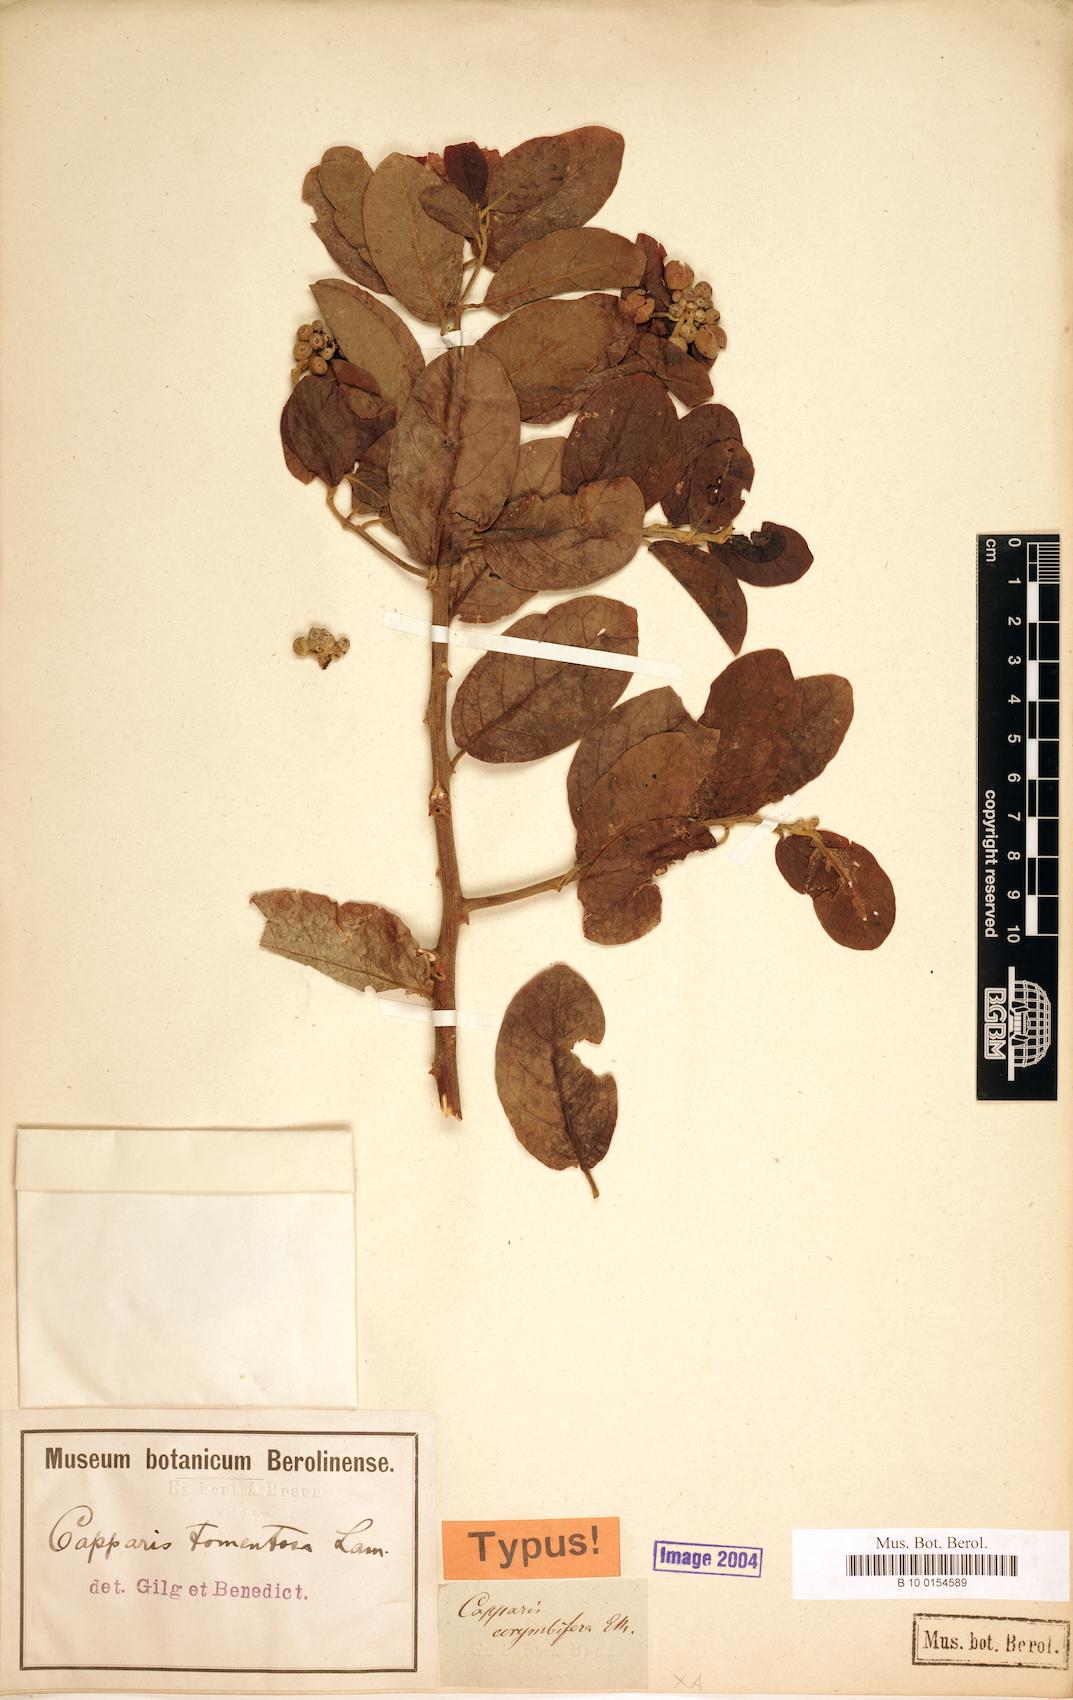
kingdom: Plantae
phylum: Tracheophyta
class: Magnoliopsida
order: Brassicales
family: Capparaceae
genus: Capparis
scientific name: Capparis tomentosa
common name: African caper
